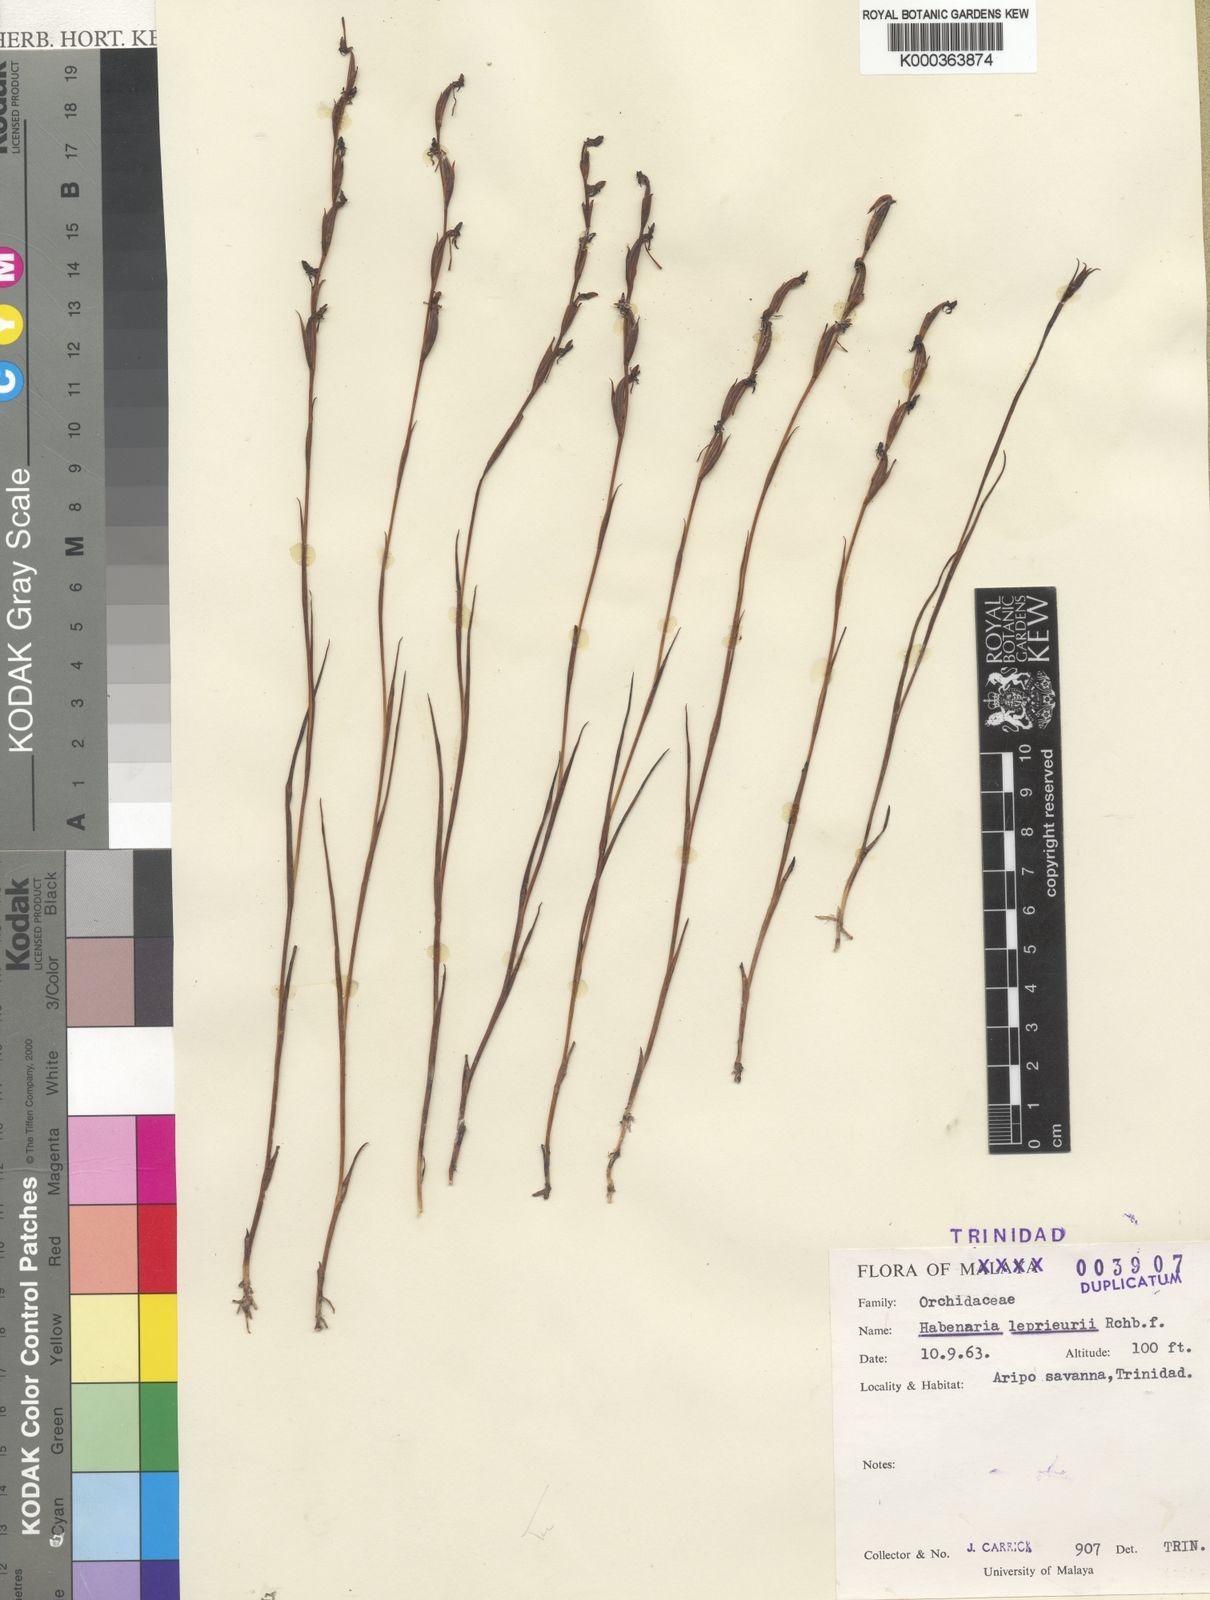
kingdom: Plantae
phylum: Tracheophyta
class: Liliopsida
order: Asparagales
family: Orchidaceae
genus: Habenaria
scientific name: Habenaria leprieurii
